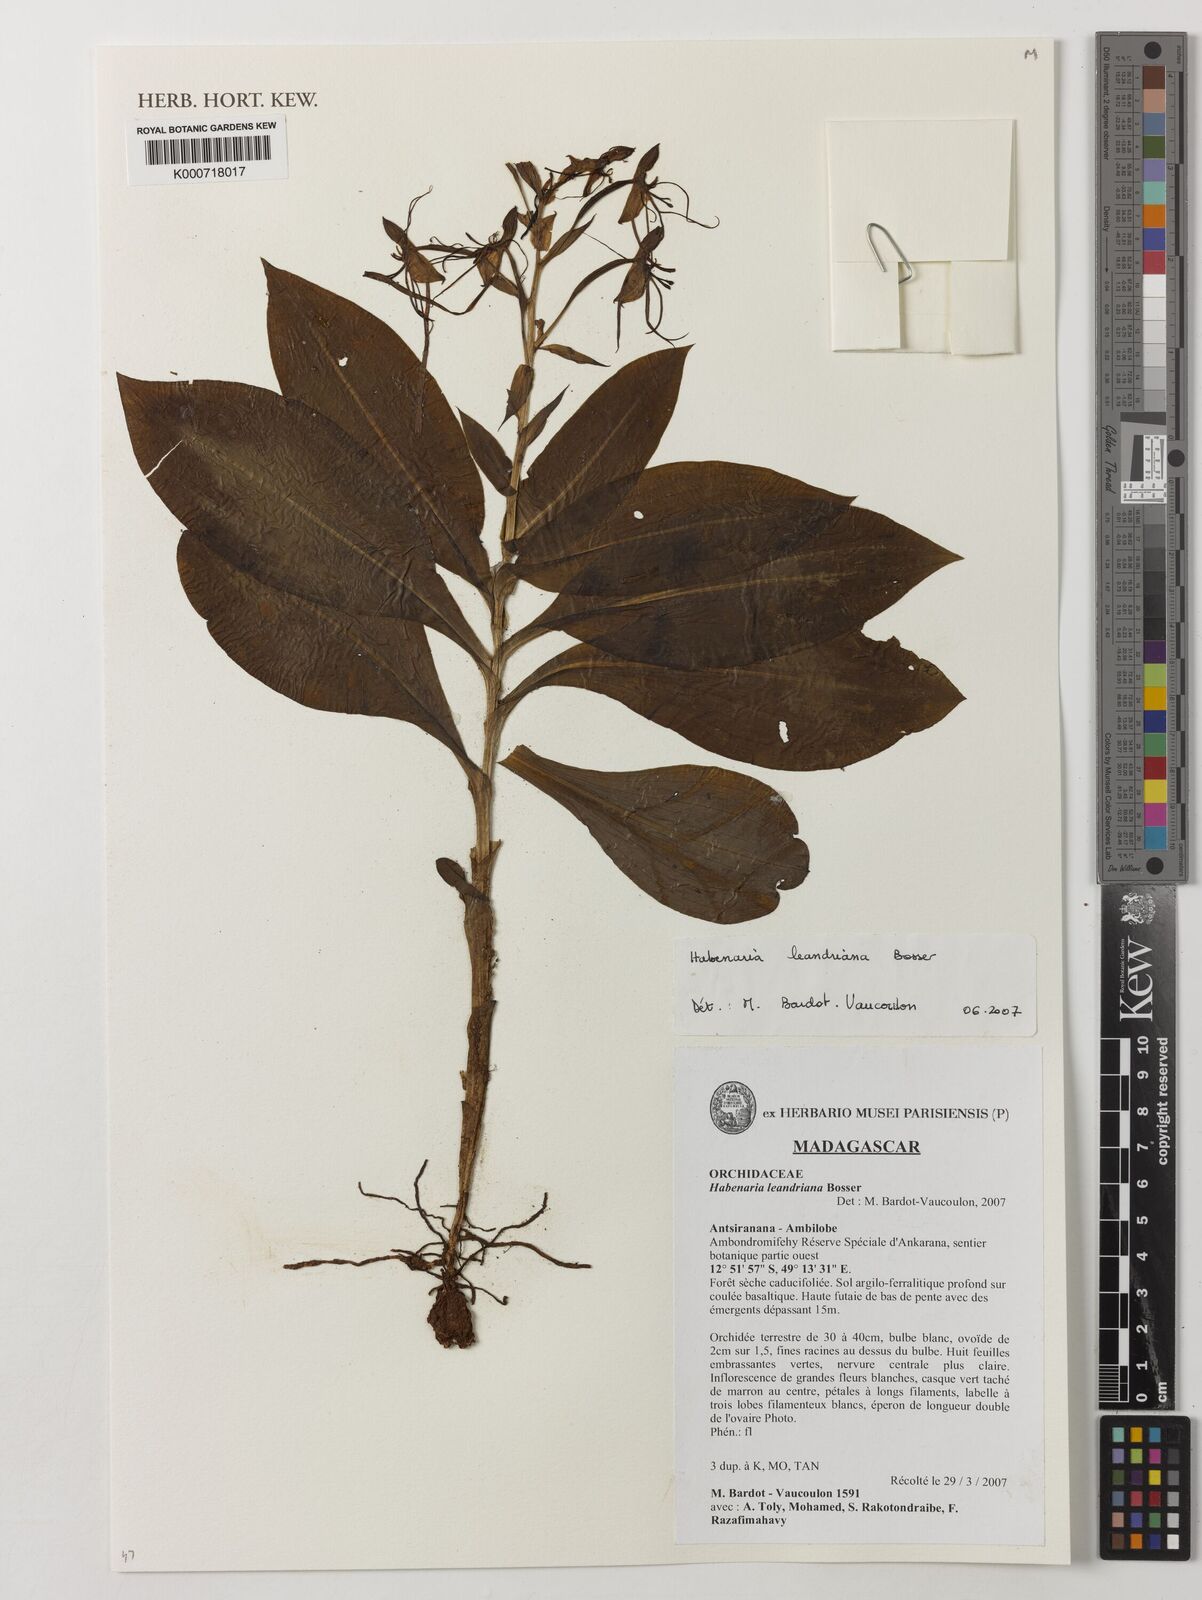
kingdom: Plantae
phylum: Tracheophyta
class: Liliopsida
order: Asparagales
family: Orchidaceae
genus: Habenaria
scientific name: Habenaria leandriana
